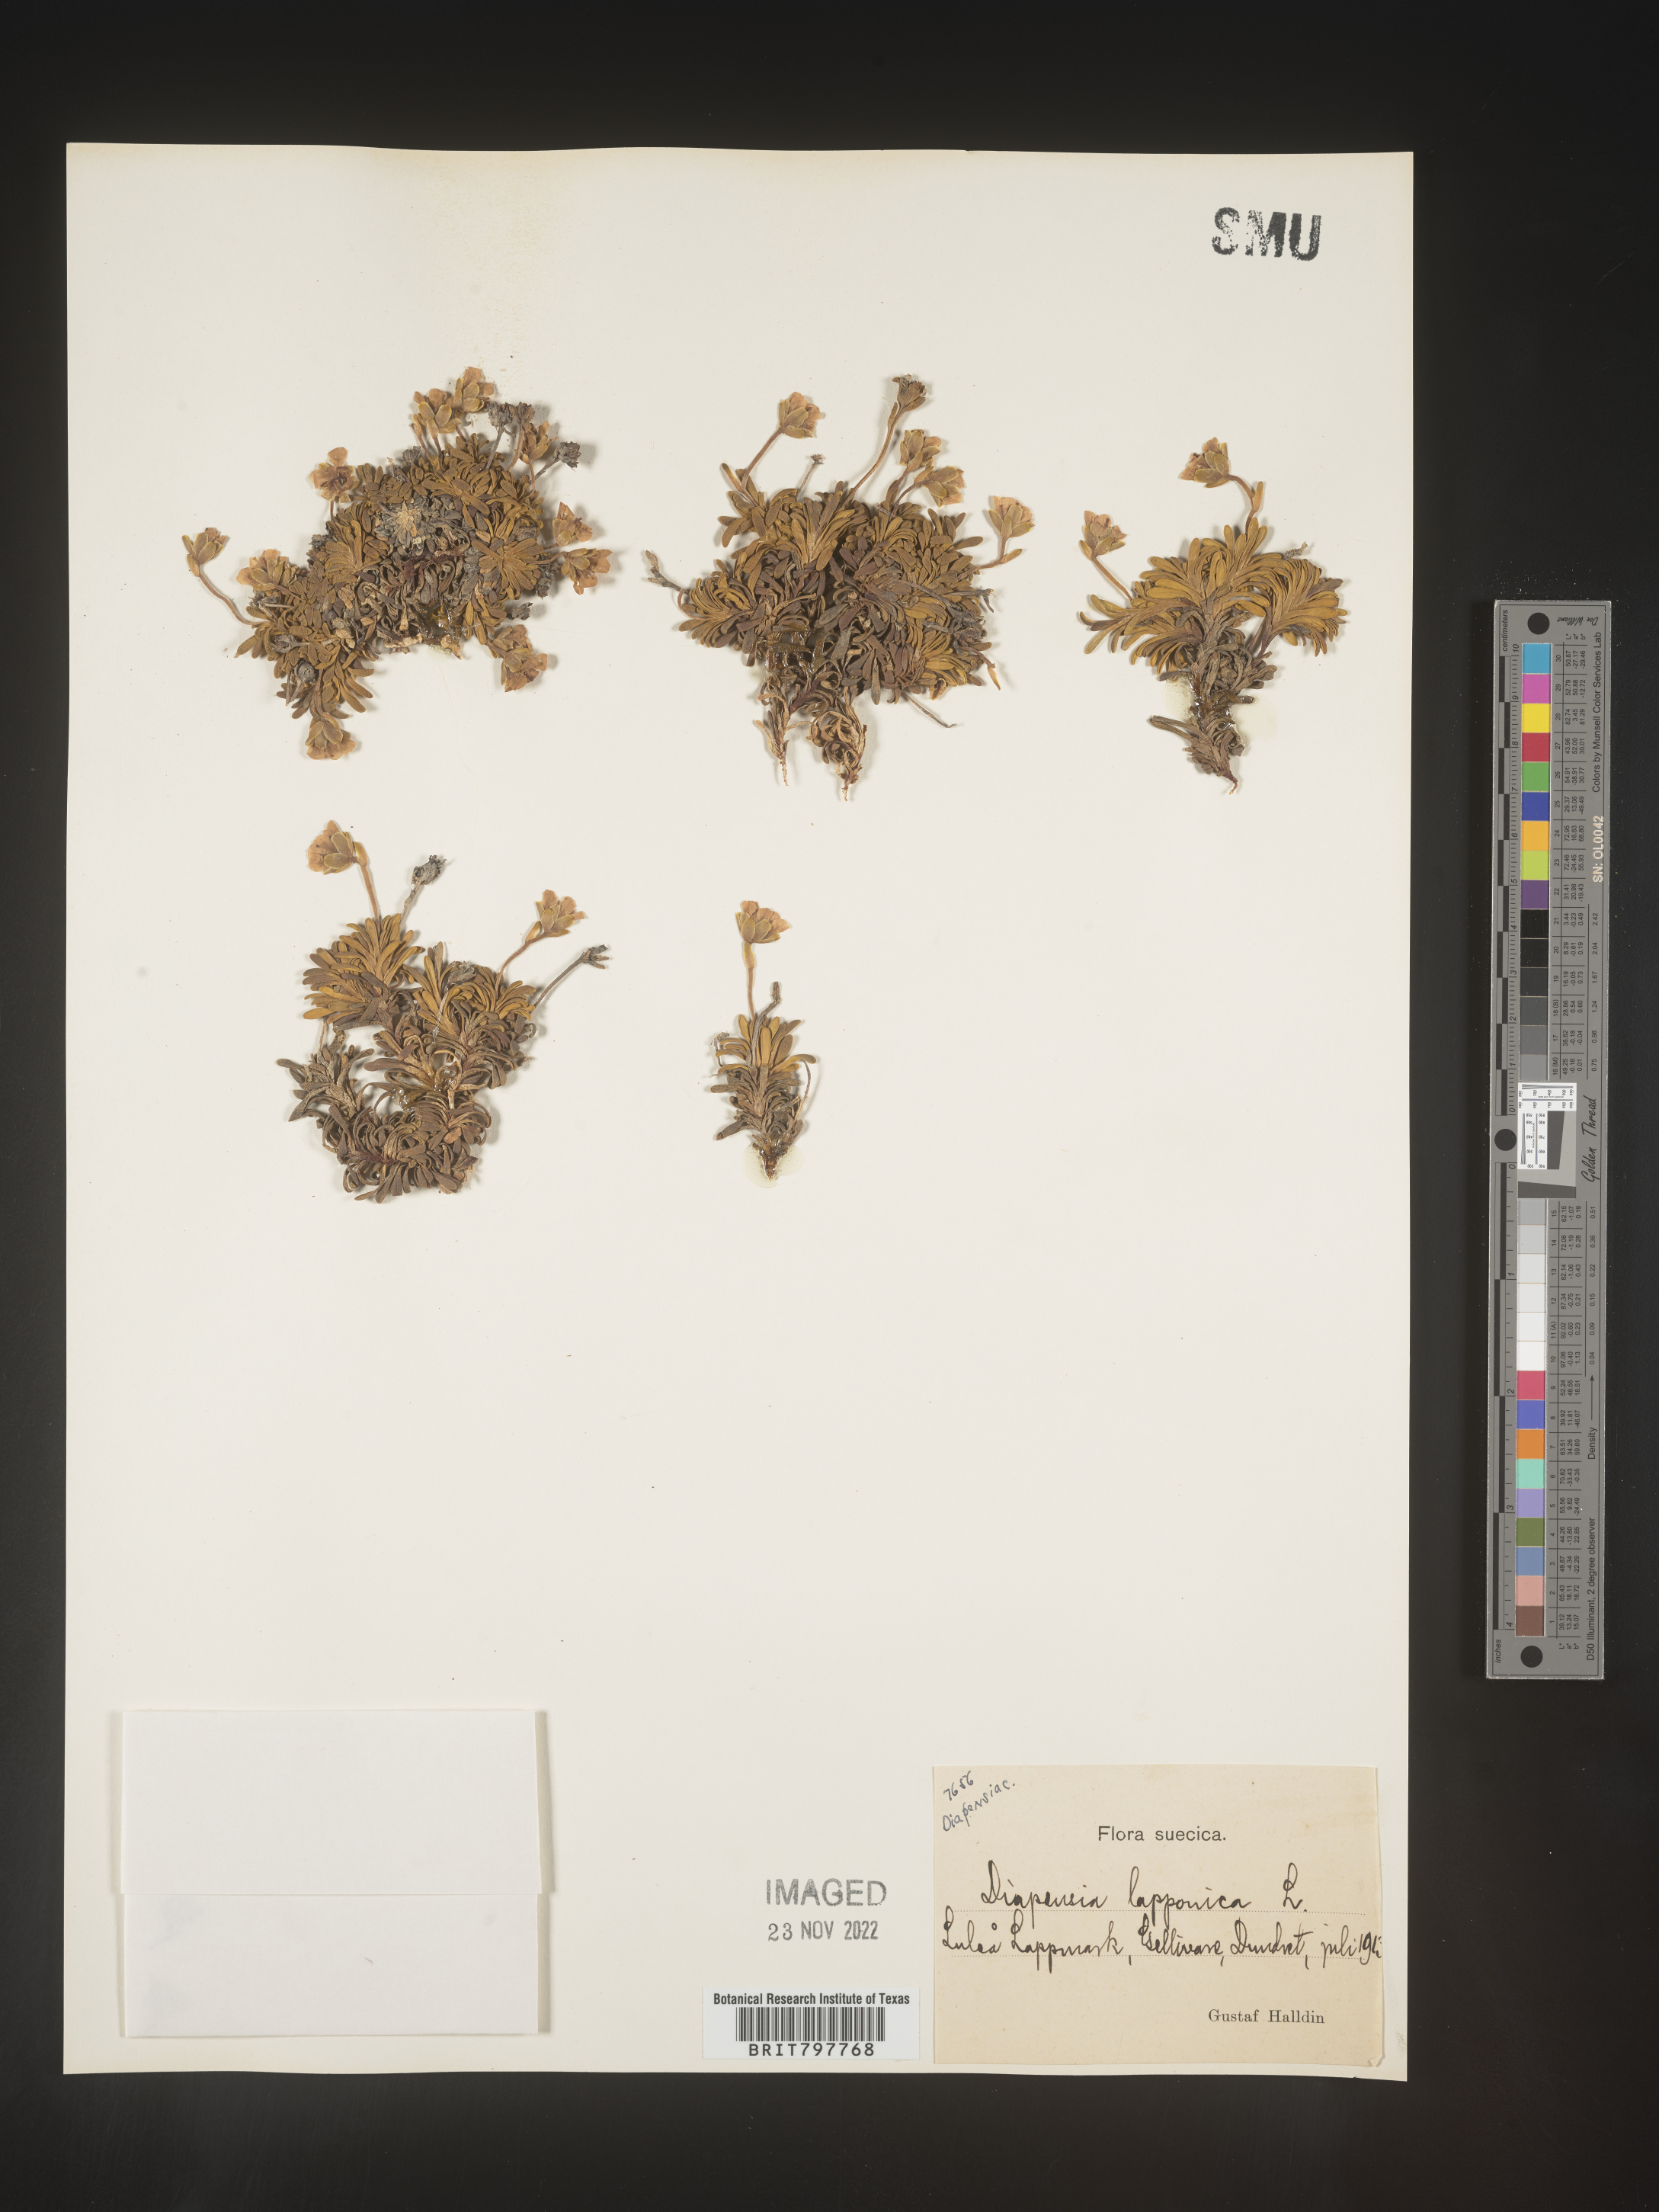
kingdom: Plantae
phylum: Tracheophyta
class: Magnoliopsida
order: Ericales
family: Diapensiaceae
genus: Diapensia
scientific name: Diapensia
